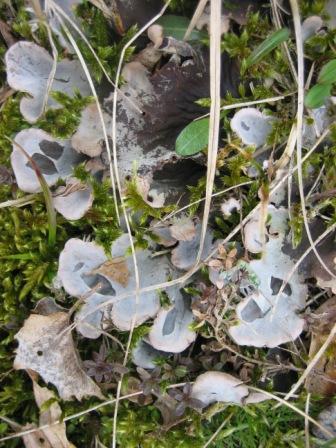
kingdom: Fungi
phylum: Ascomycota
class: Lecanoromycetes
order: Peltigerales
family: Peltigeraceae
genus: Peltigera
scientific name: Peltigera membranacea
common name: tynd skjoldlav
